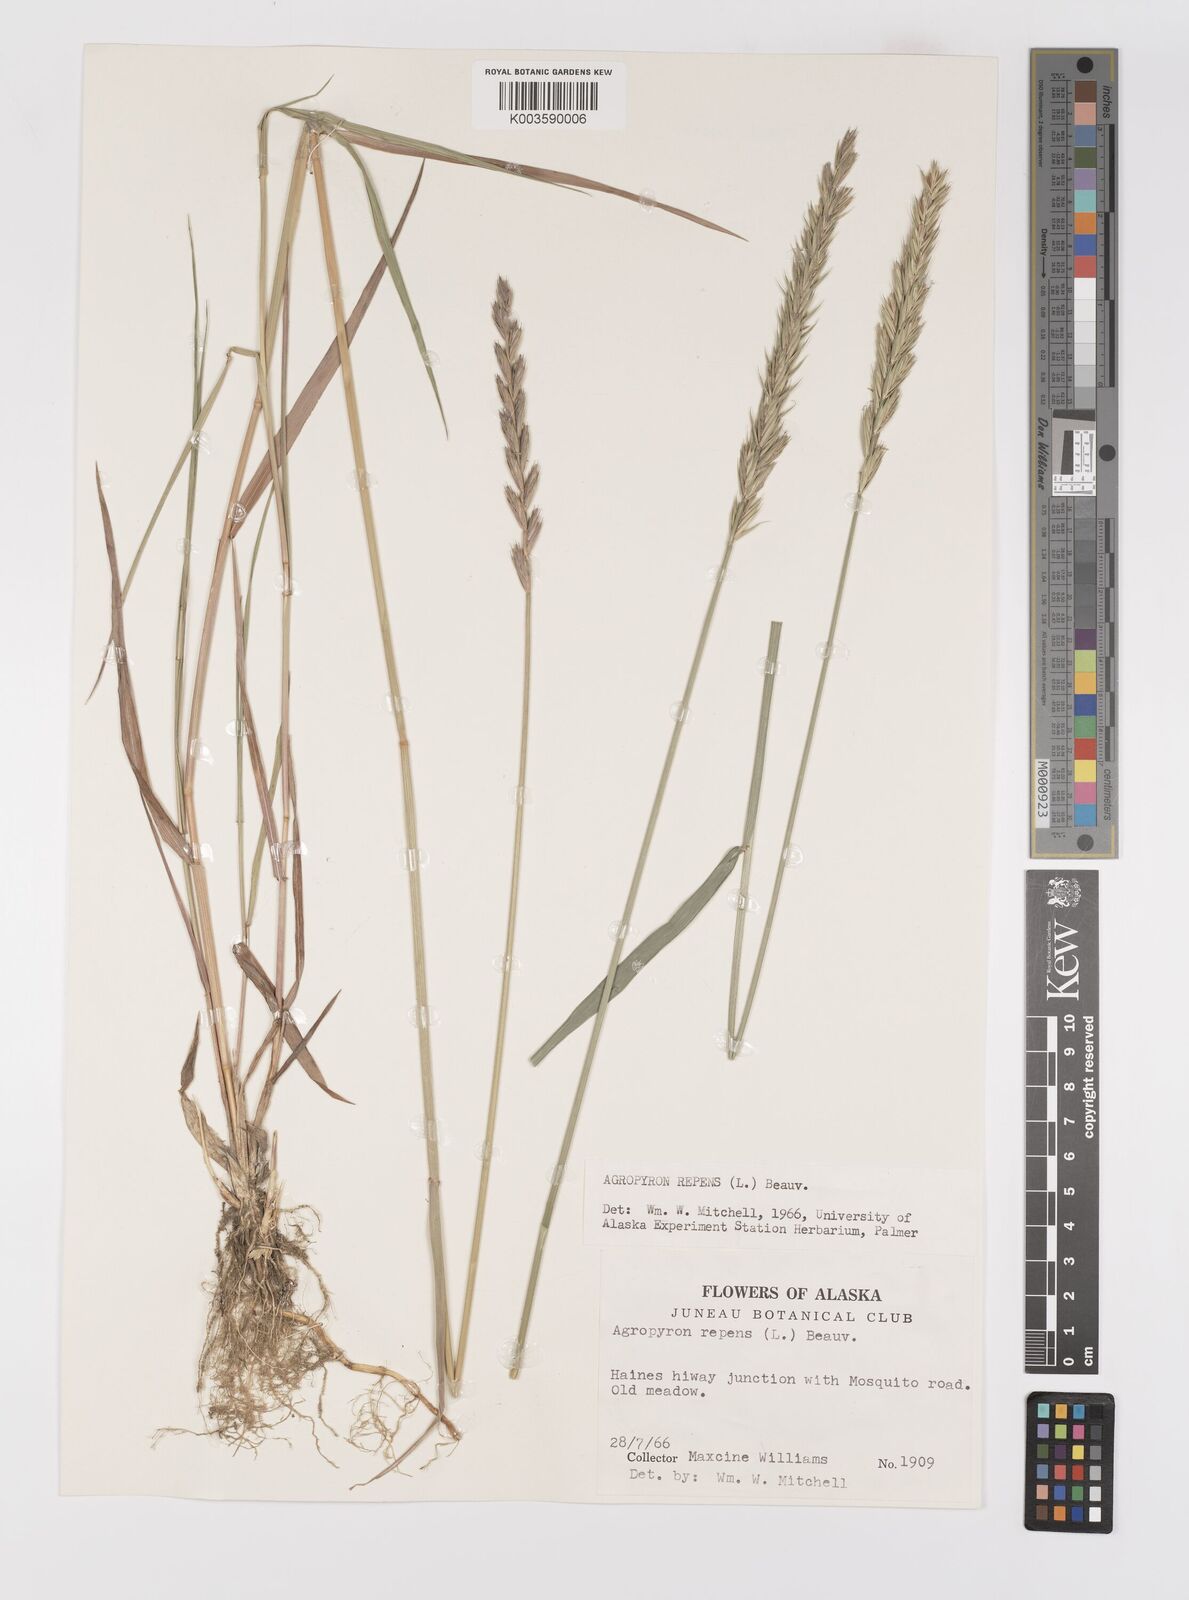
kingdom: Plantae
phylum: Tracheophyta
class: Liliopsida
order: Poales
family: Poaceae
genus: Elymus
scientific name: Elymus repens
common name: Quackgrass
